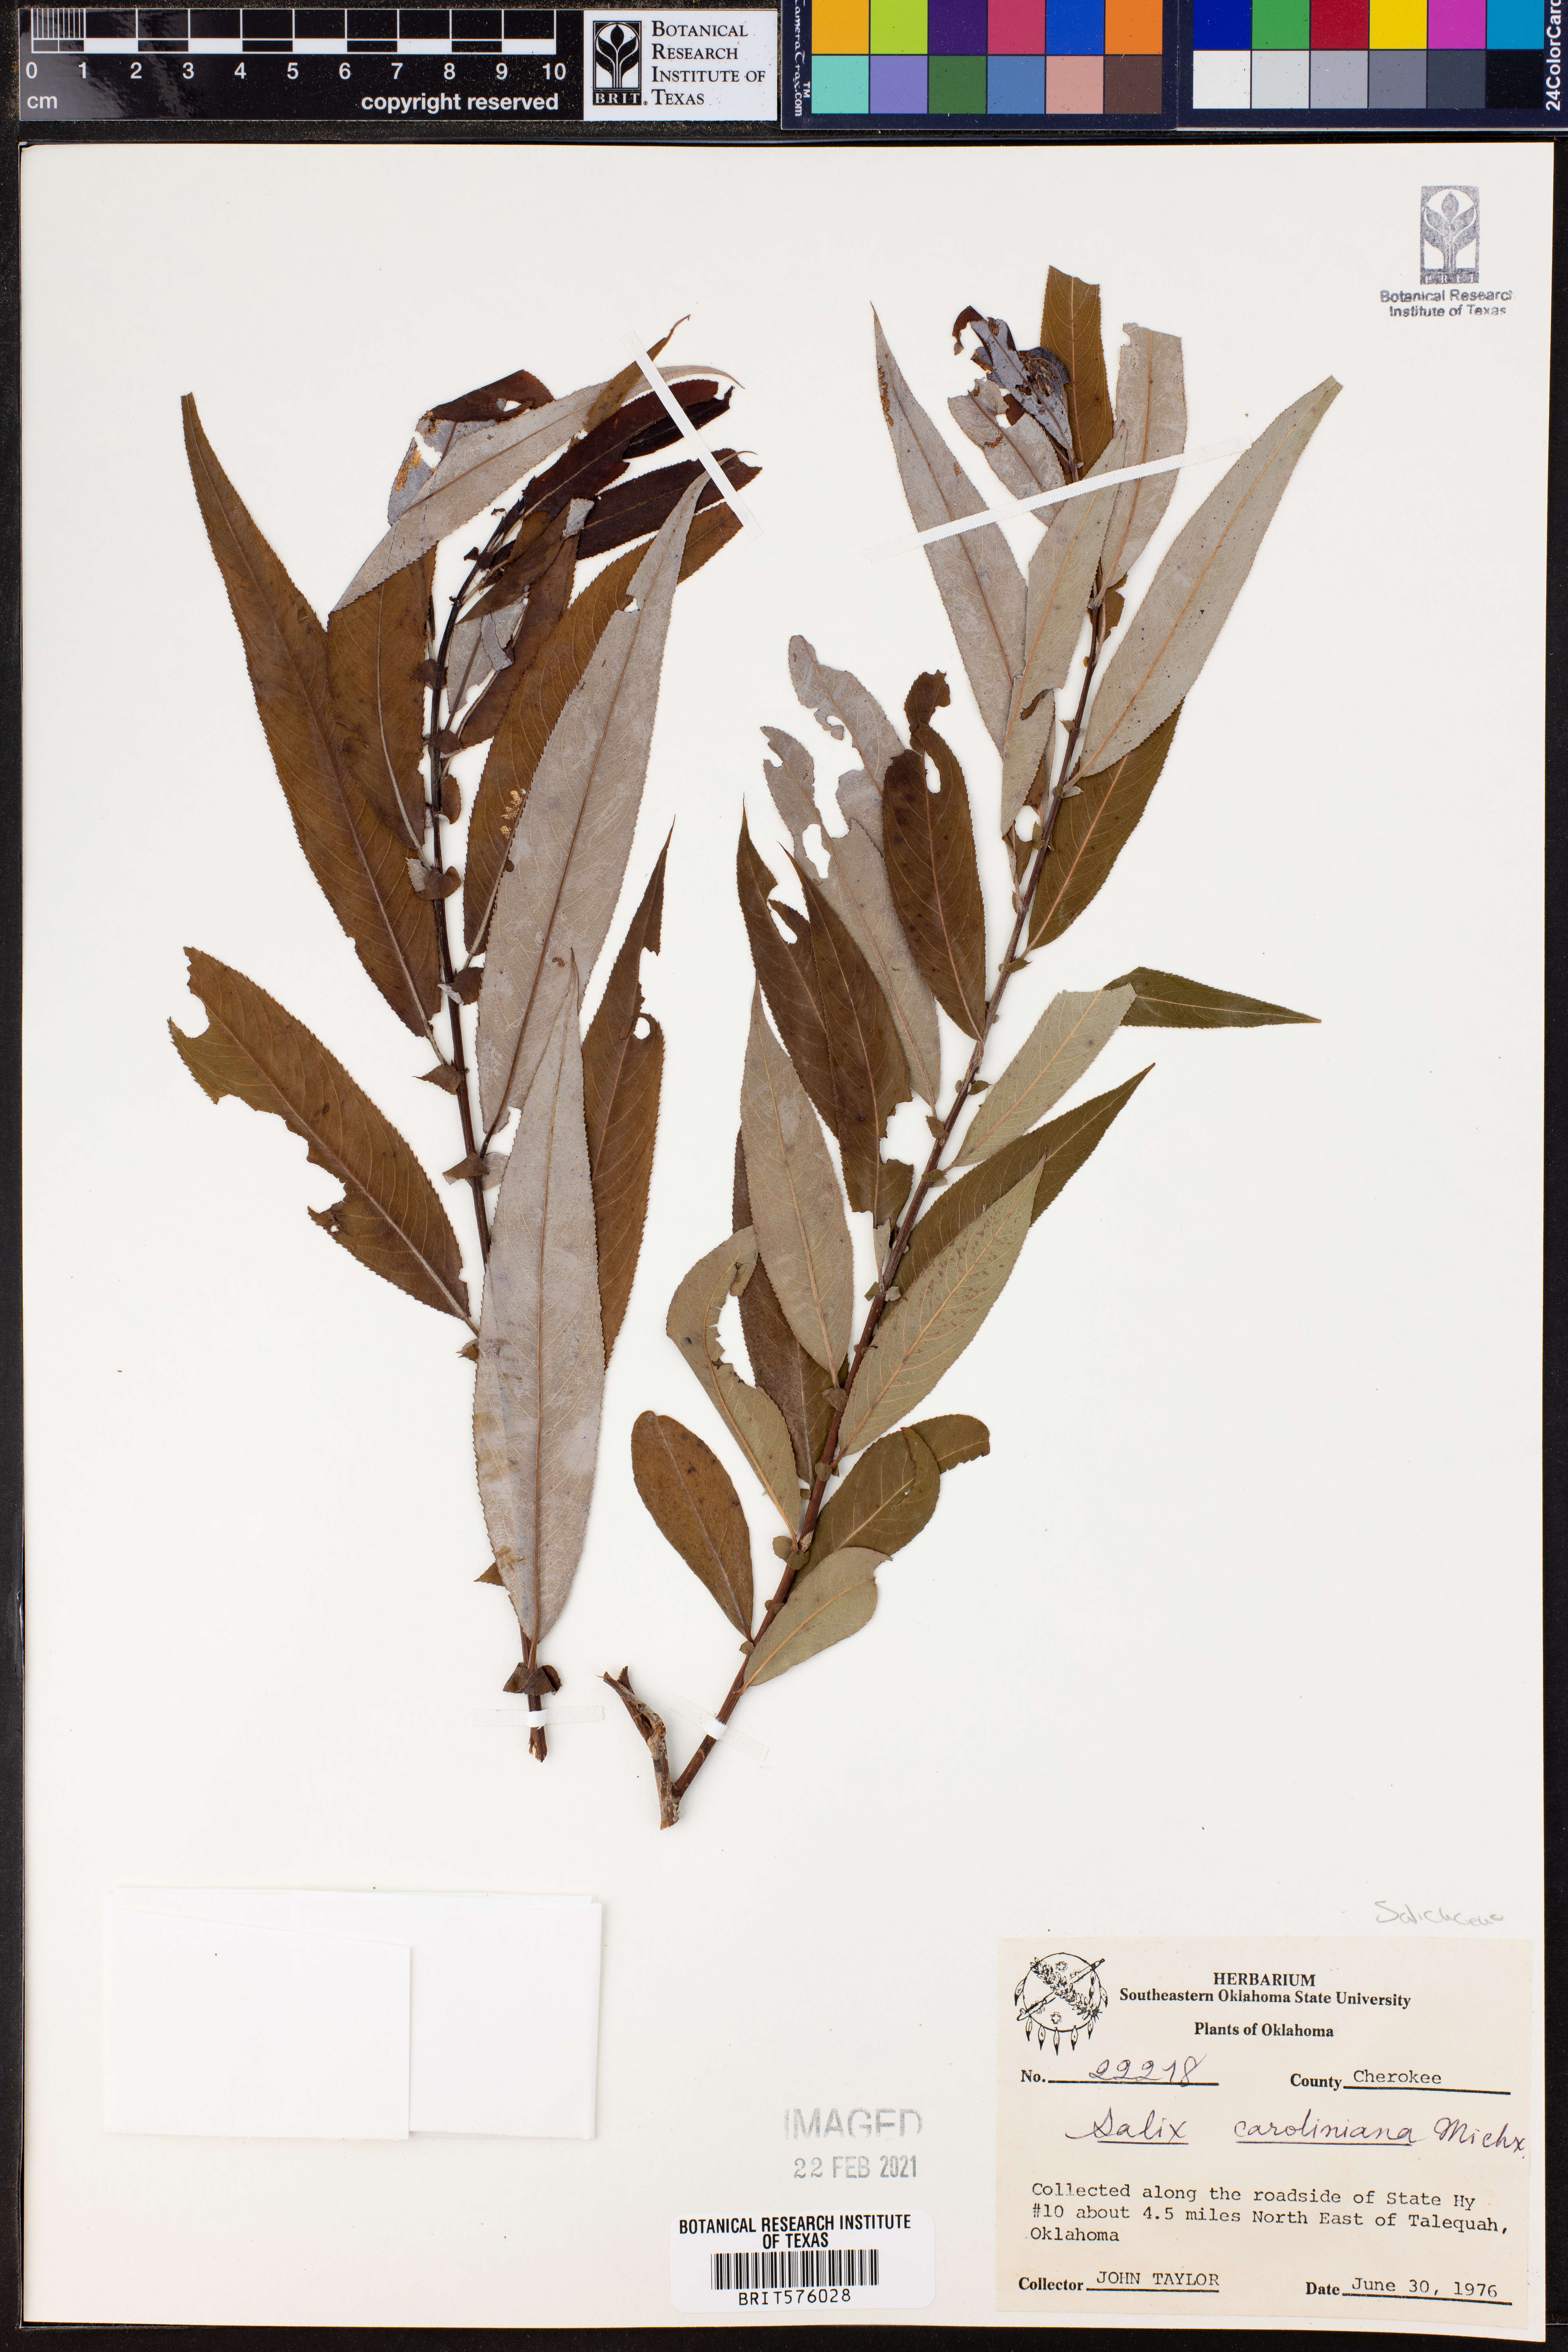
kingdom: Plantae
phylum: Tracheophyta
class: Magnoliopsida
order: Malpighiales
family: Salicaceae
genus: Salix
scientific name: Salix caroliniana
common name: Carolina willow
